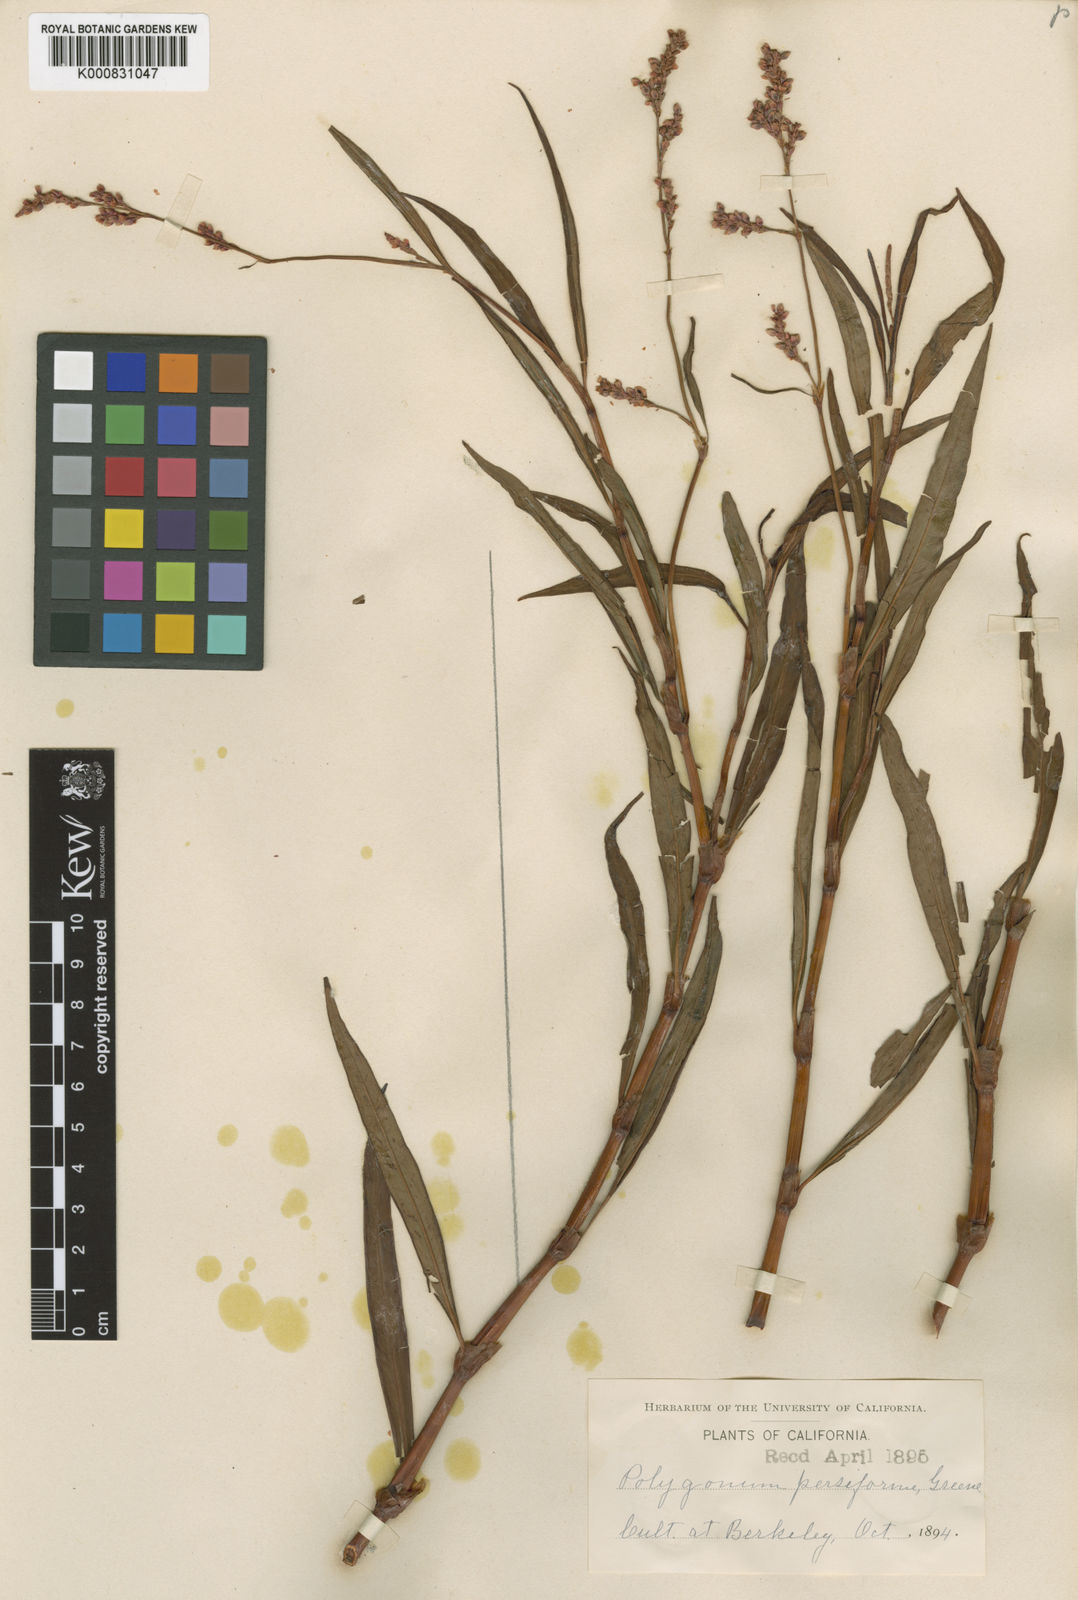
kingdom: Plantae
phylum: Tracheophyta
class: Magnoliopsida
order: Caryophyllales
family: Polygonaceae
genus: Polygonum
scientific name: Polygonum
